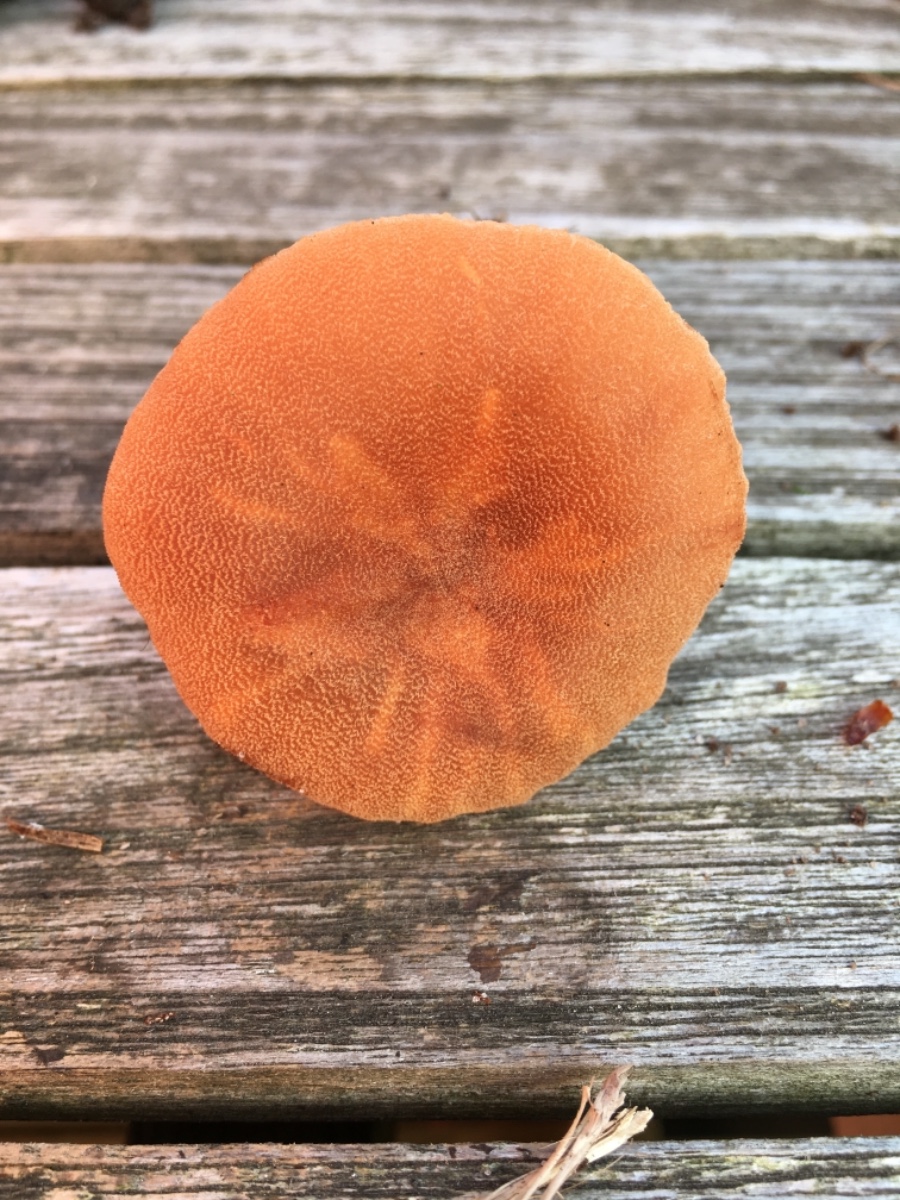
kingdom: Fungi
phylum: Basidiomycota
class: Agaricomycetes
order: Agaricales
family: Hydnangiaceae
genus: Laccaria
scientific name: Laccaria bicolor
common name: tvefarvet ametysthat
